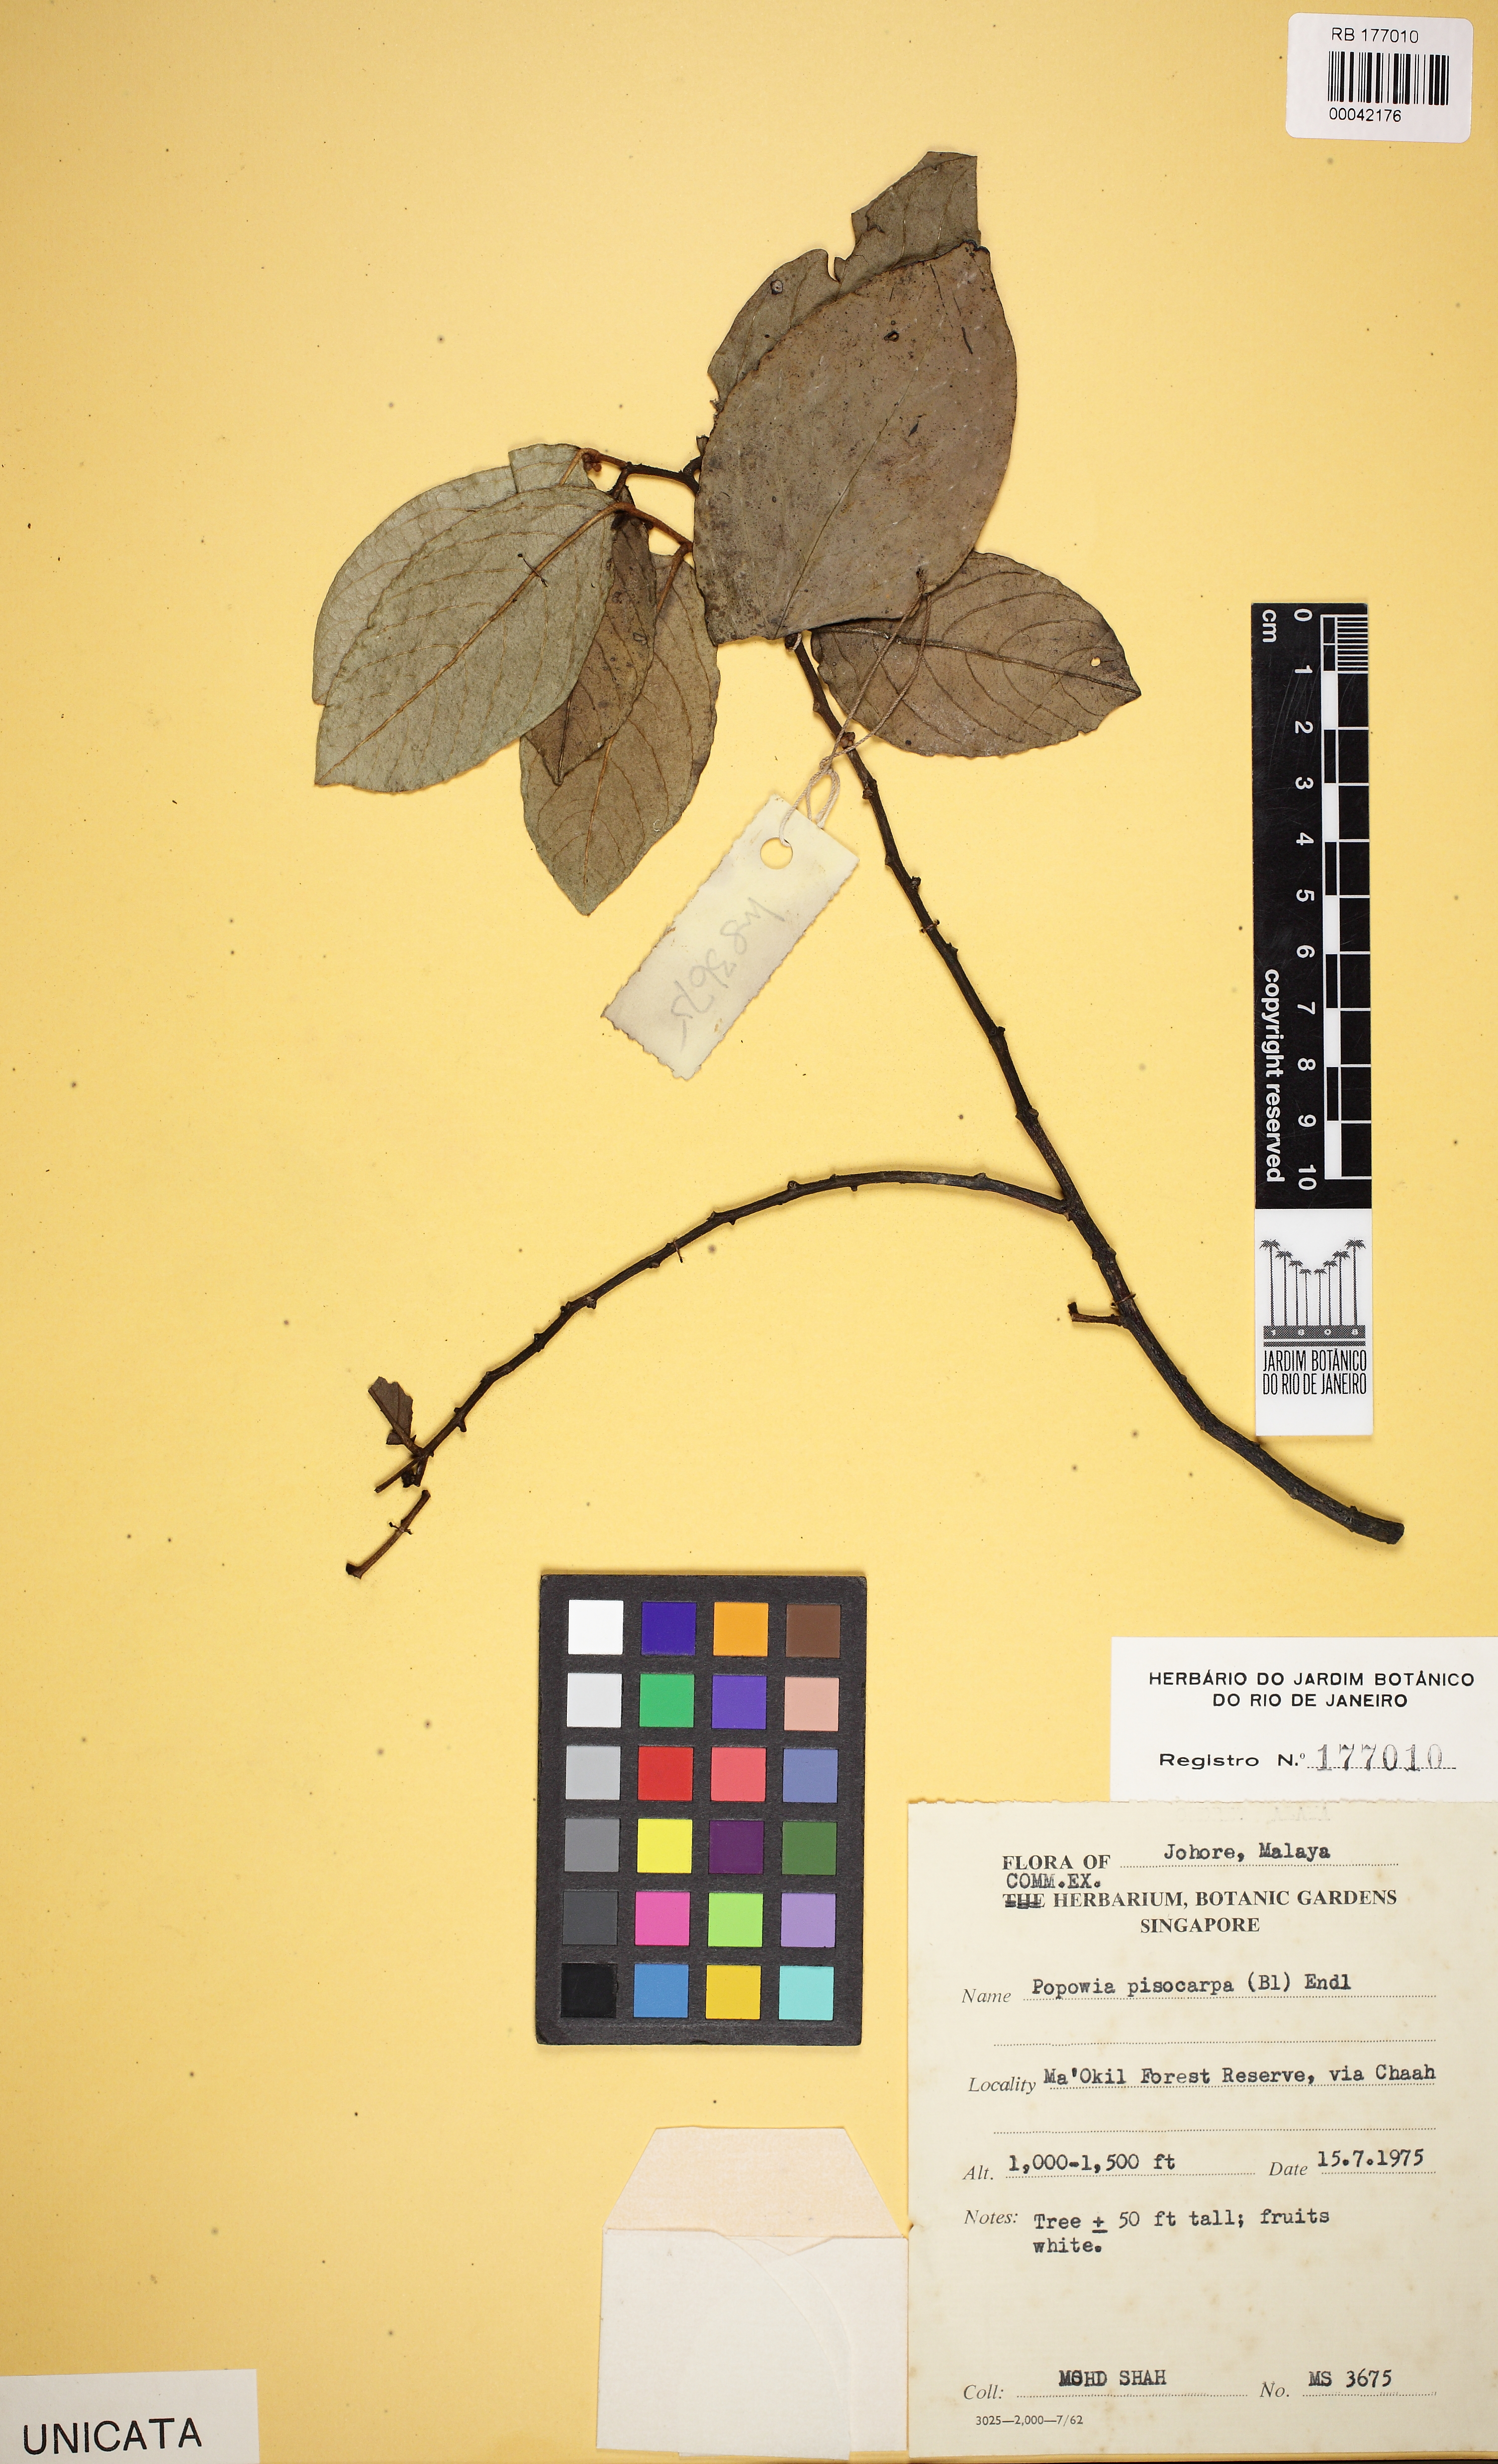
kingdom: Plantae
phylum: Tracheophyta
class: Magnoliopsida
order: Magnoliales
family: Annonaceae
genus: Popowia
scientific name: Popowia pisocarpa
